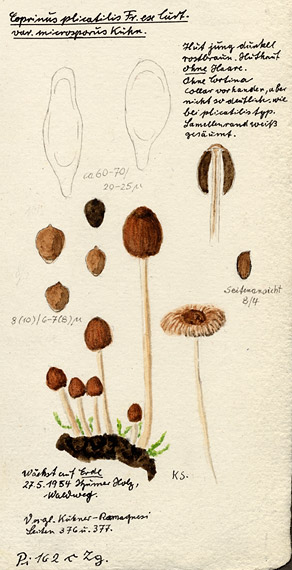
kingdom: Fungi
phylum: Basidiomycota
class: Agaricomycetes
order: Agaricales
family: Psathyrellaceae
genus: Parasola
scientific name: Parasola plicatilis
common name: Pleated inkcap
